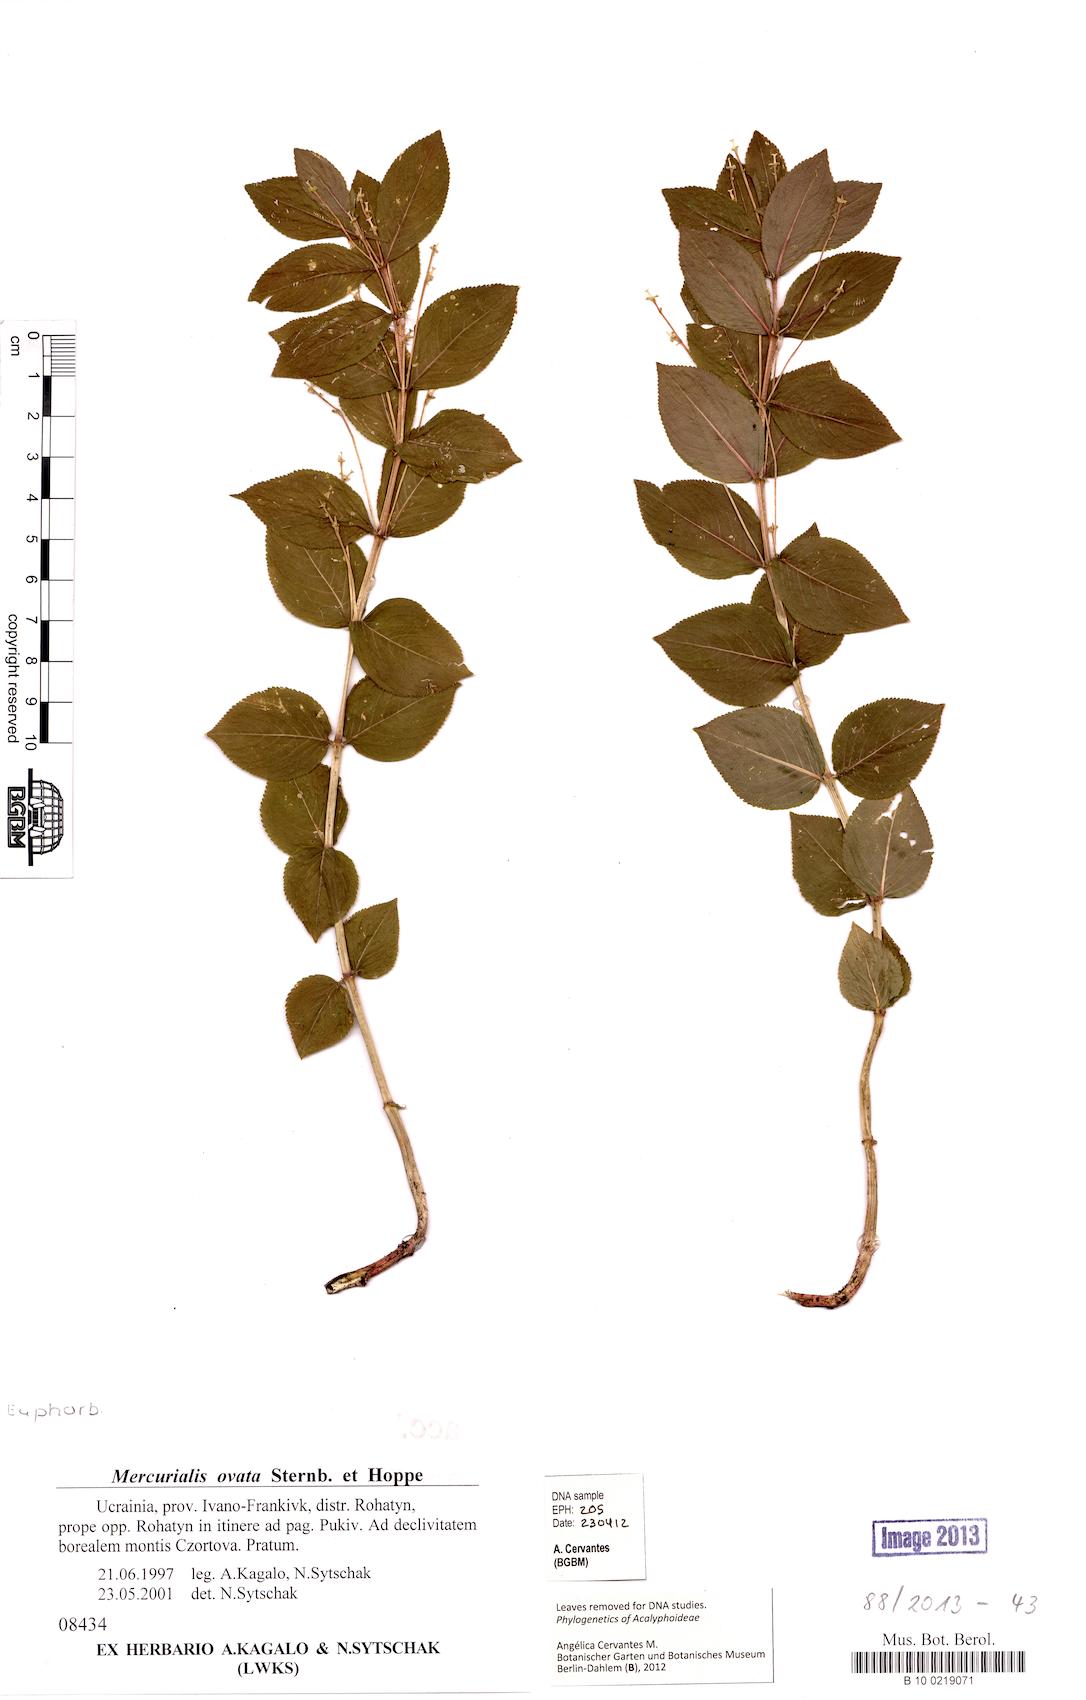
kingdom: Plantae
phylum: Tracheophyta
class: Magnoliopsida
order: Malpighiales
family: Euphorbiaceae
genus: Mercurialis
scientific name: Mercurialis ovata
